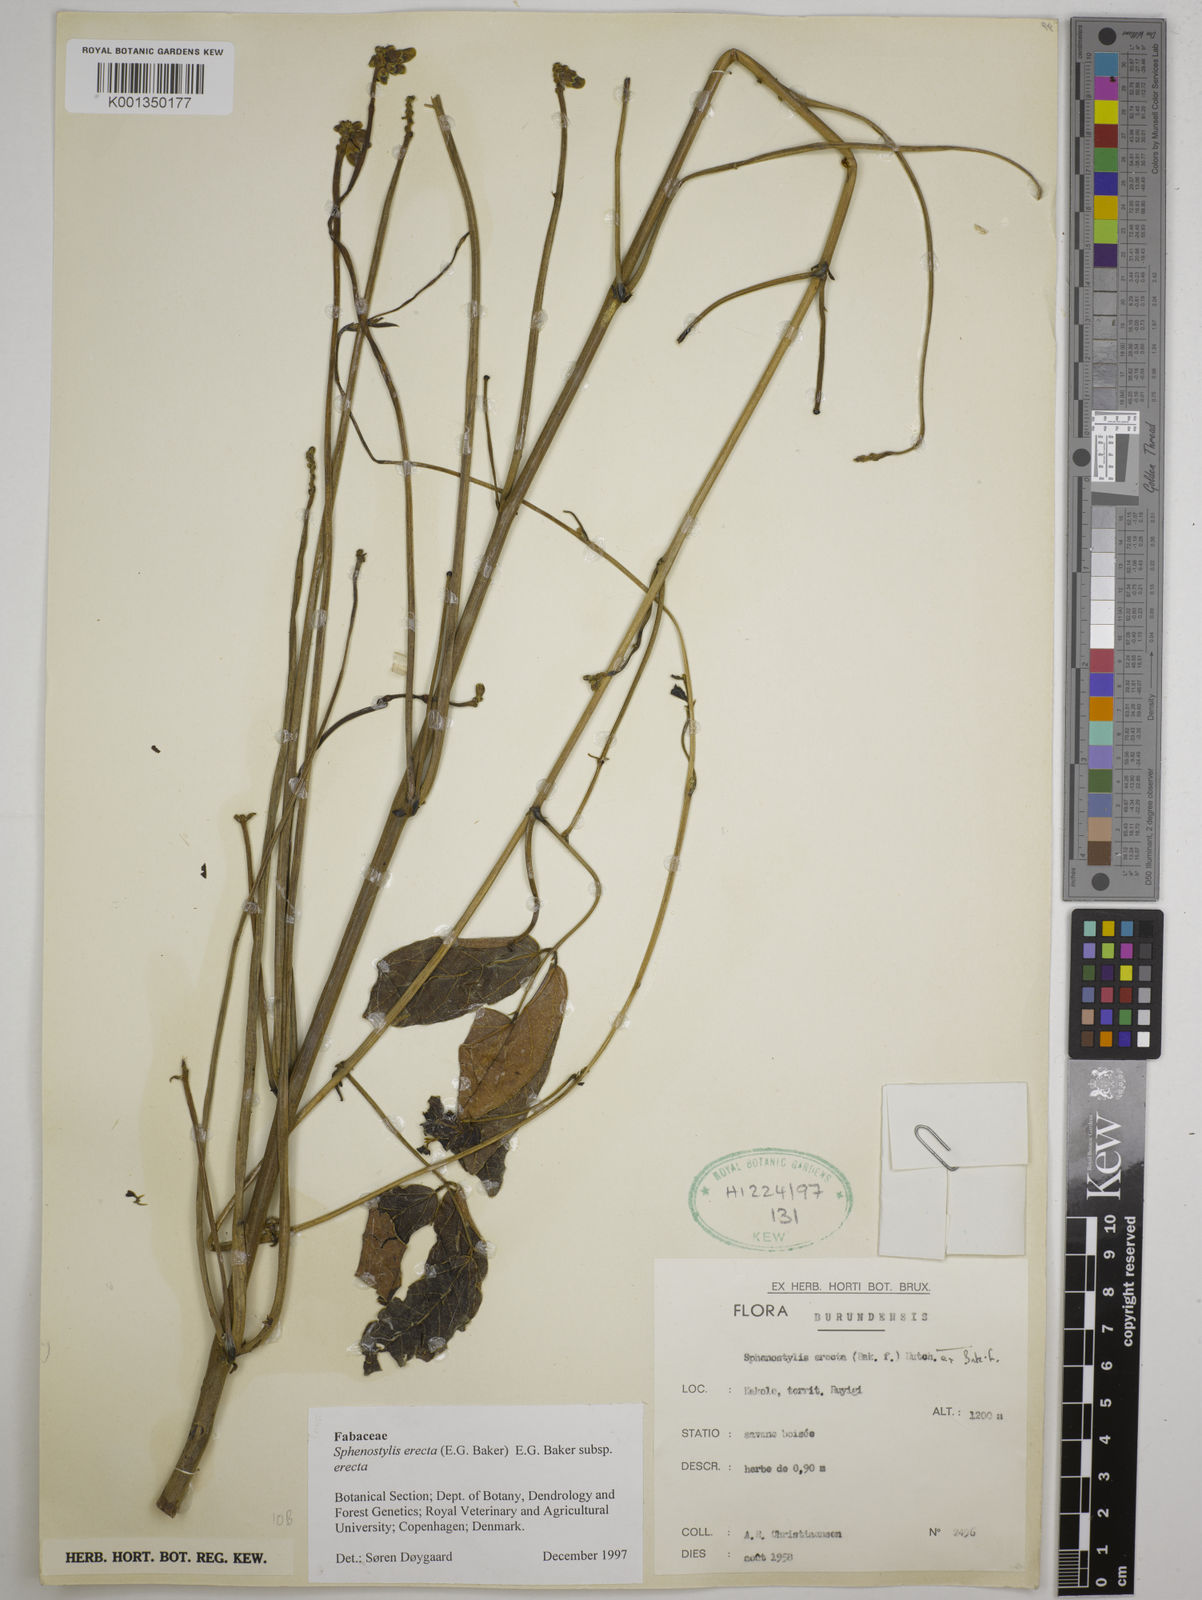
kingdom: Plantae
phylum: Tracheophyta
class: Magnoliopsida
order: Fabales
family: Fabaceae
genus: Sphenostylis
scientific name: Sphenostylis erecta
